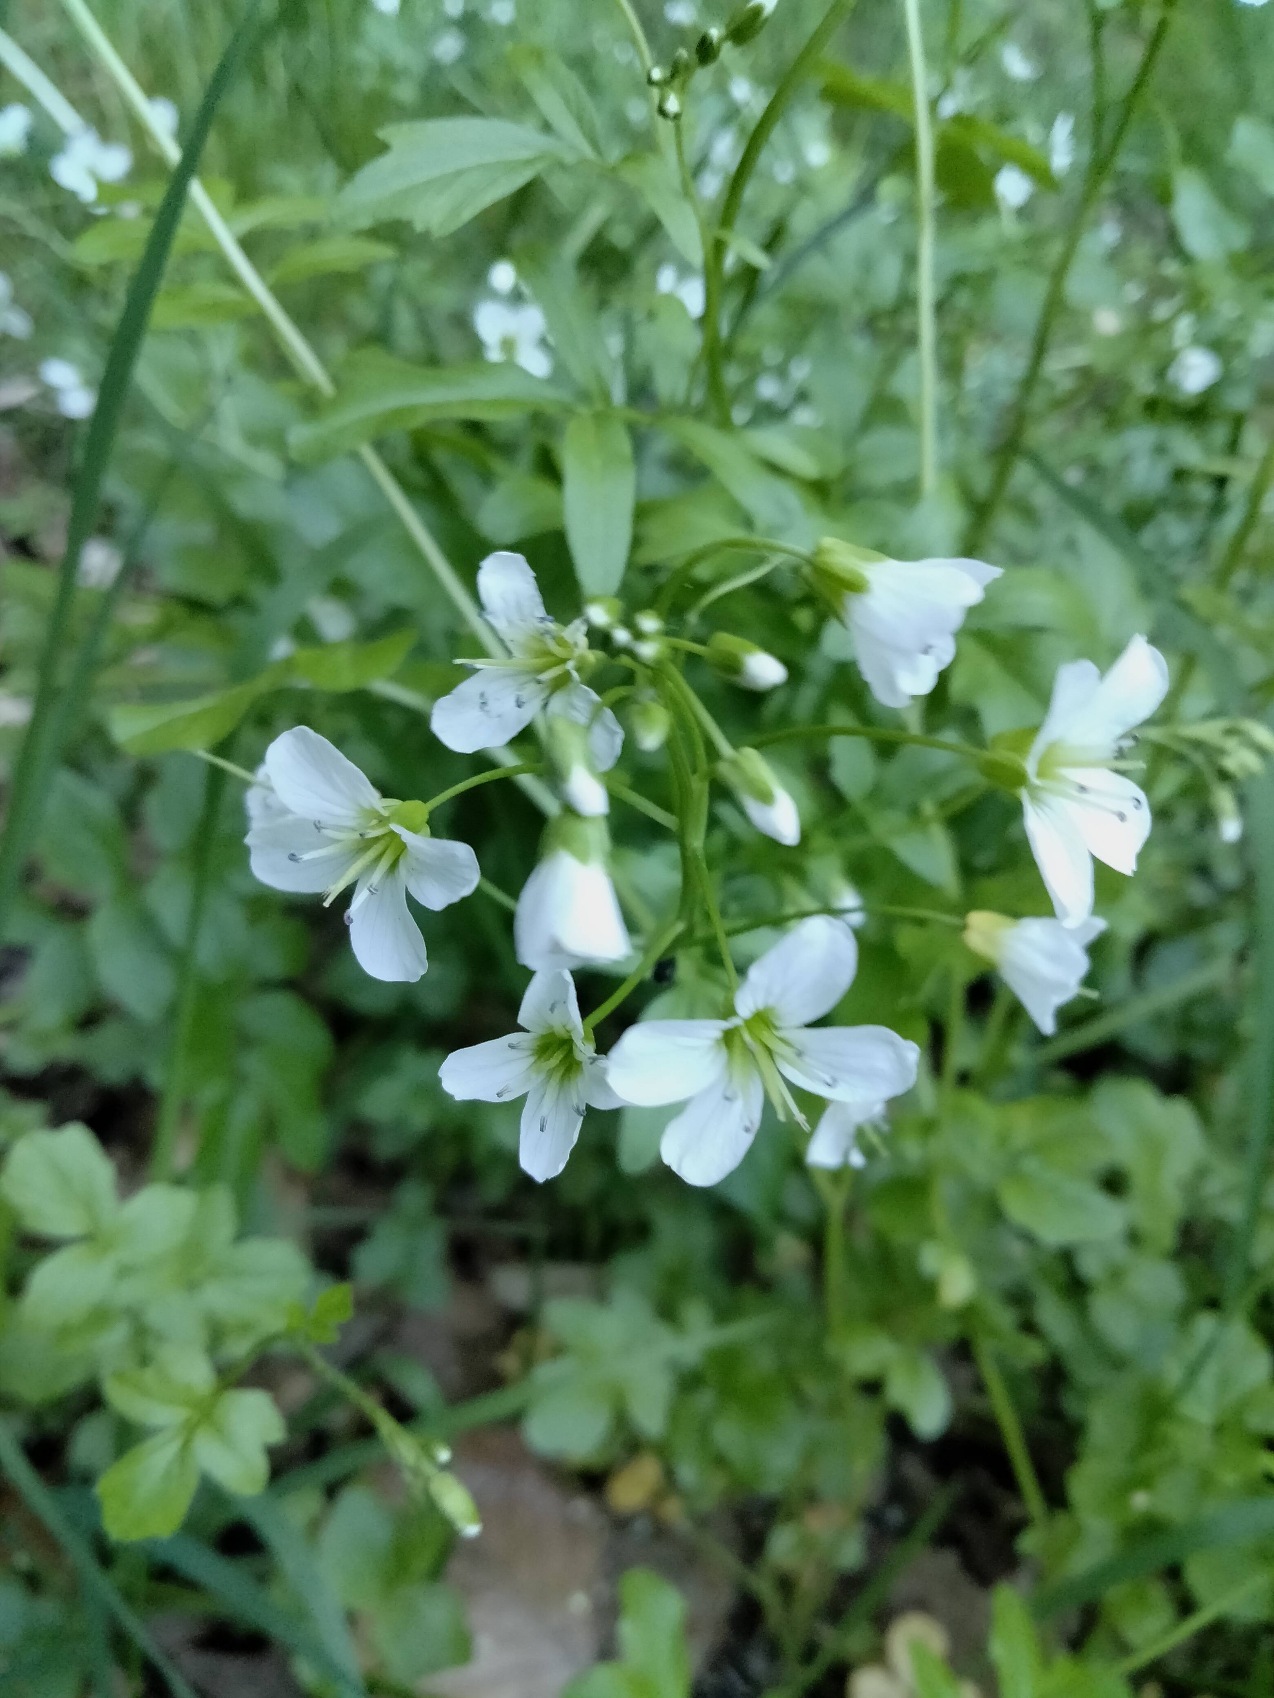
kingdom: Plantae
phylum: Tracheophyta
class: Magnoliopsida
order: Brassicales
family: Brassicaceae
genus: Cardamine
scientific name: Cardamine amara
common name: Vandkarse
